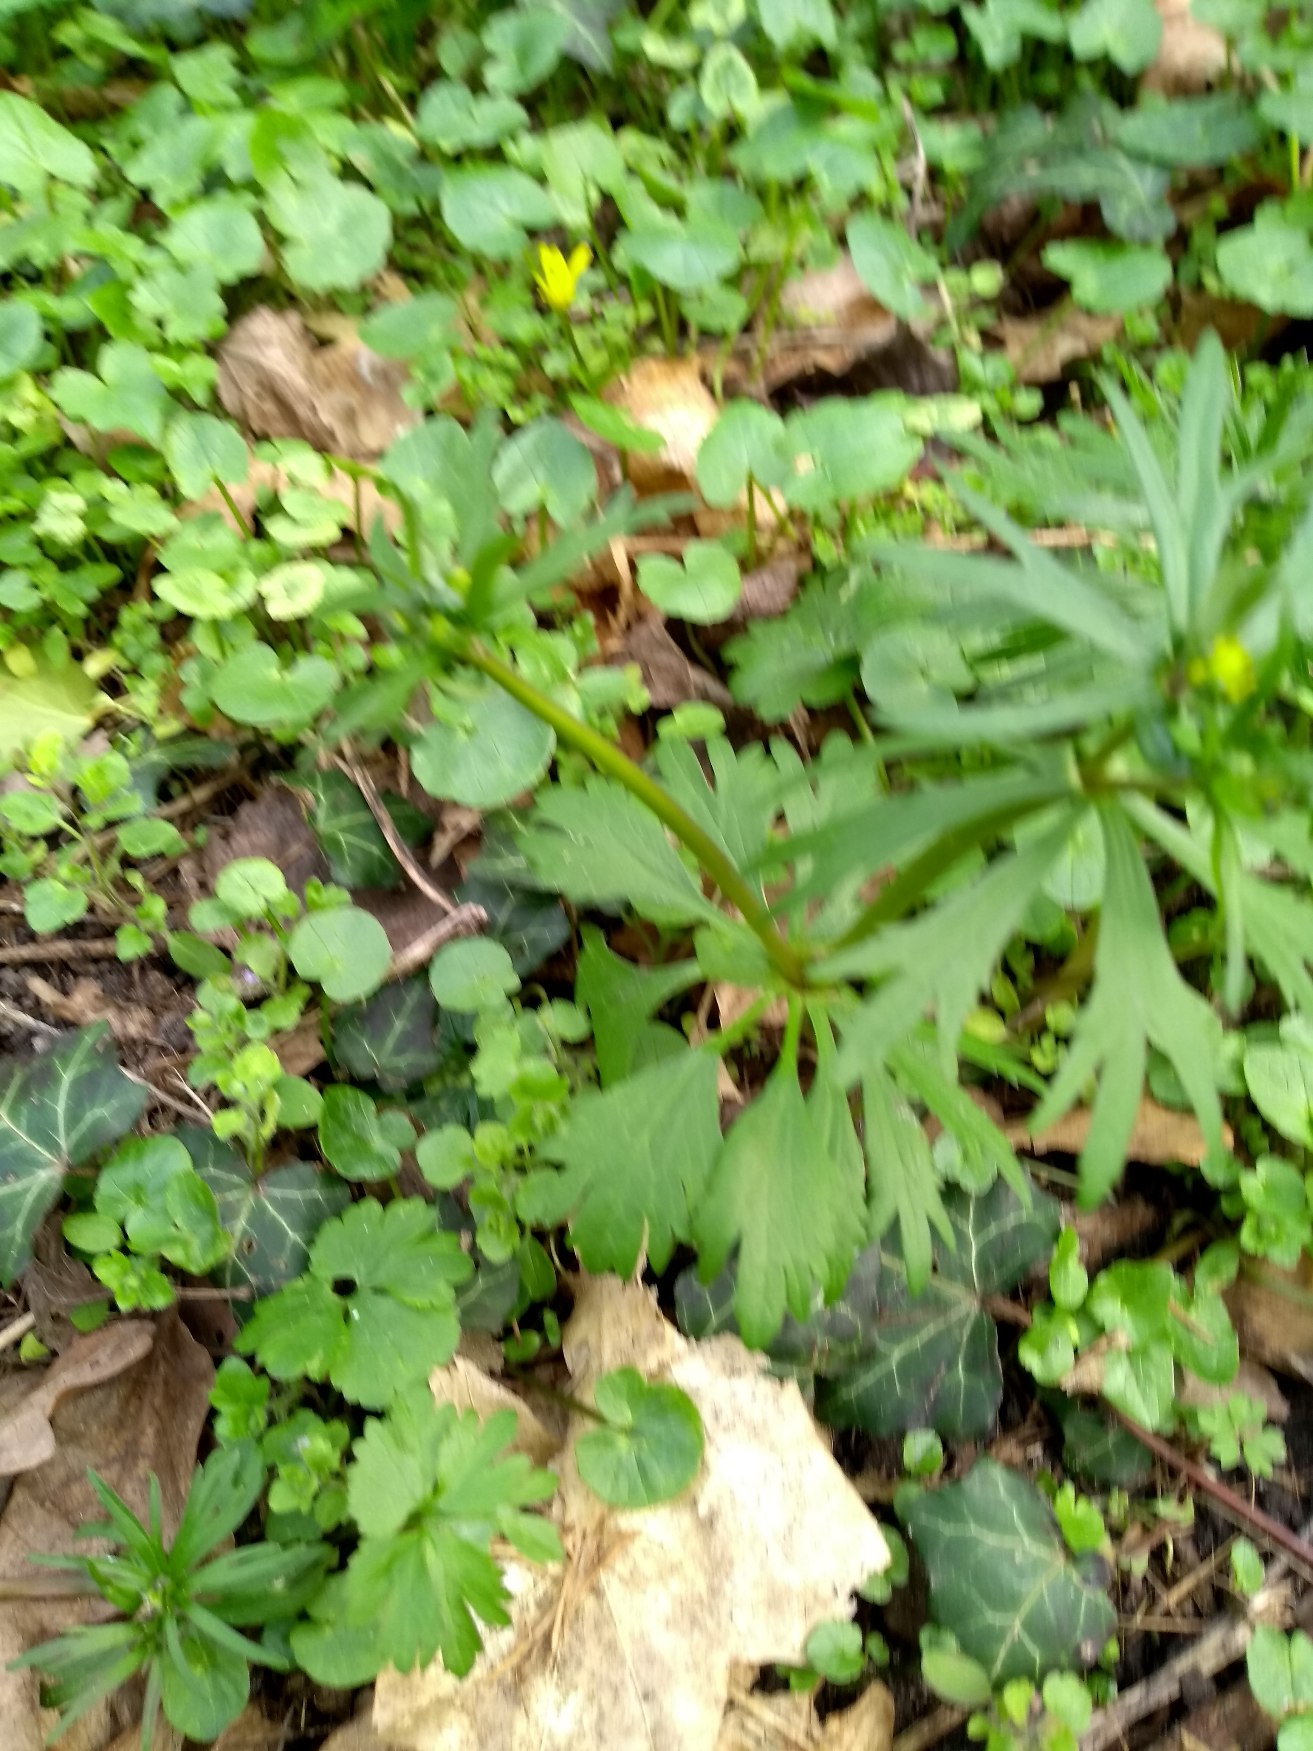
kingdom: Plantae
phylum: Tracheophyta
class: Magnoliopsida
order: Ranunculales
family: Ranunculaceae
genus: Ranunculus
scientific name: Ranunculus auricomus
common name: Nyrebladet ranunkel
